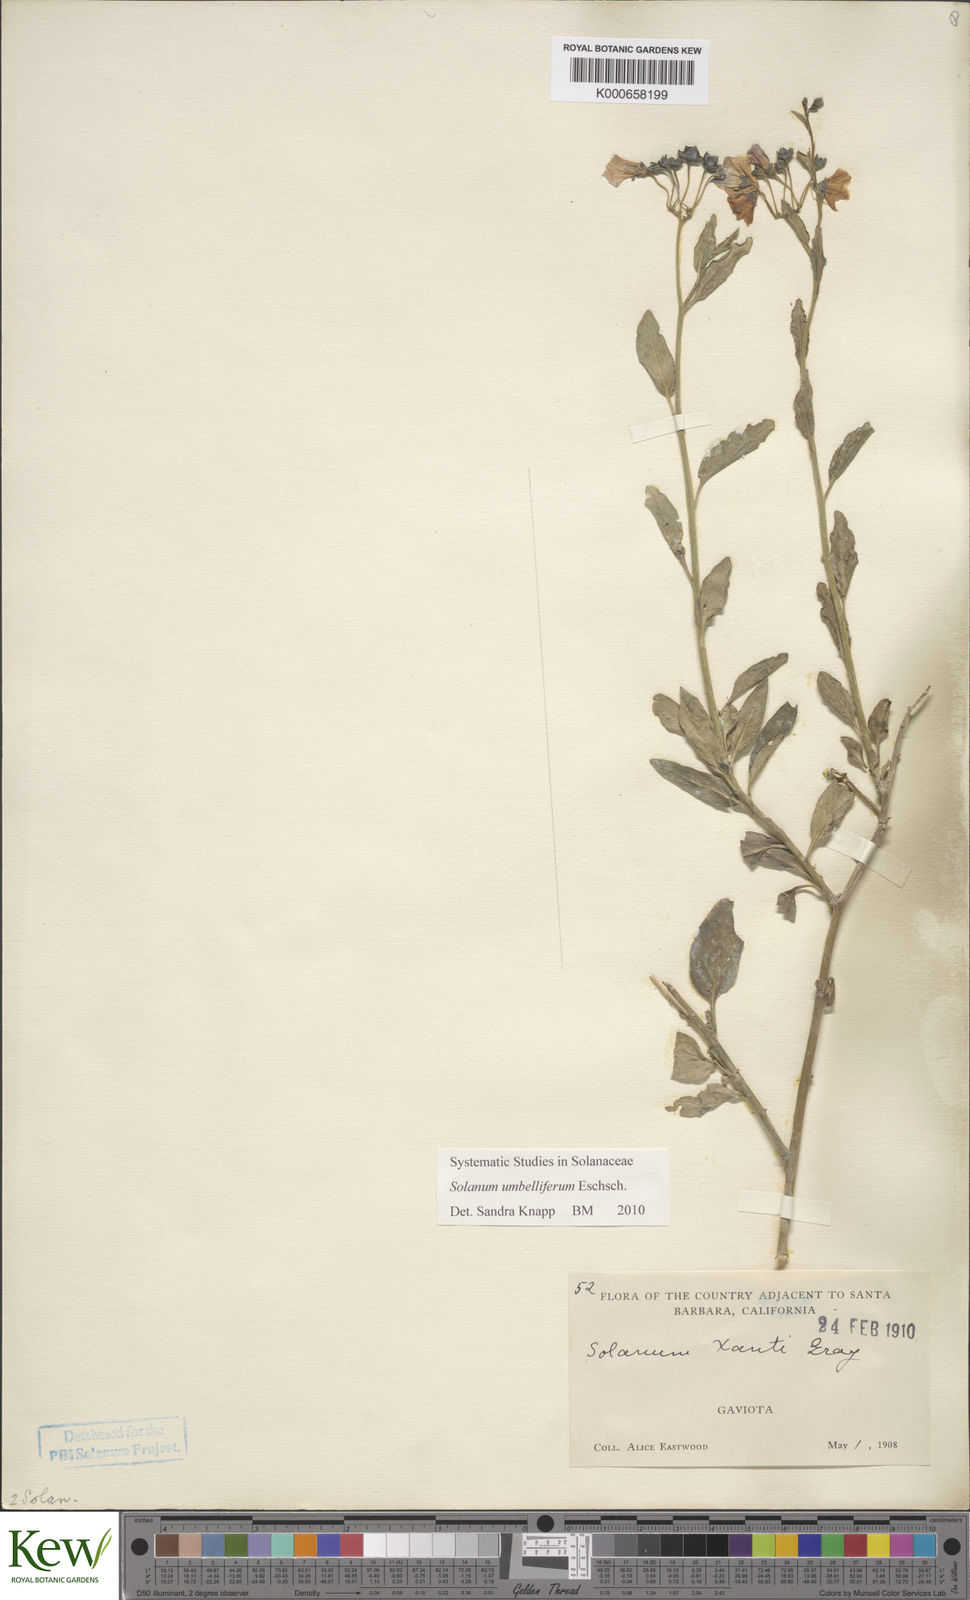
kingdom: Plantae
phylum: Tracheophyta
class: Magnoliopsida
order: Solanales
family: Solanaceae
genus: Solanum
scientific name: Solanum umbelliferum
